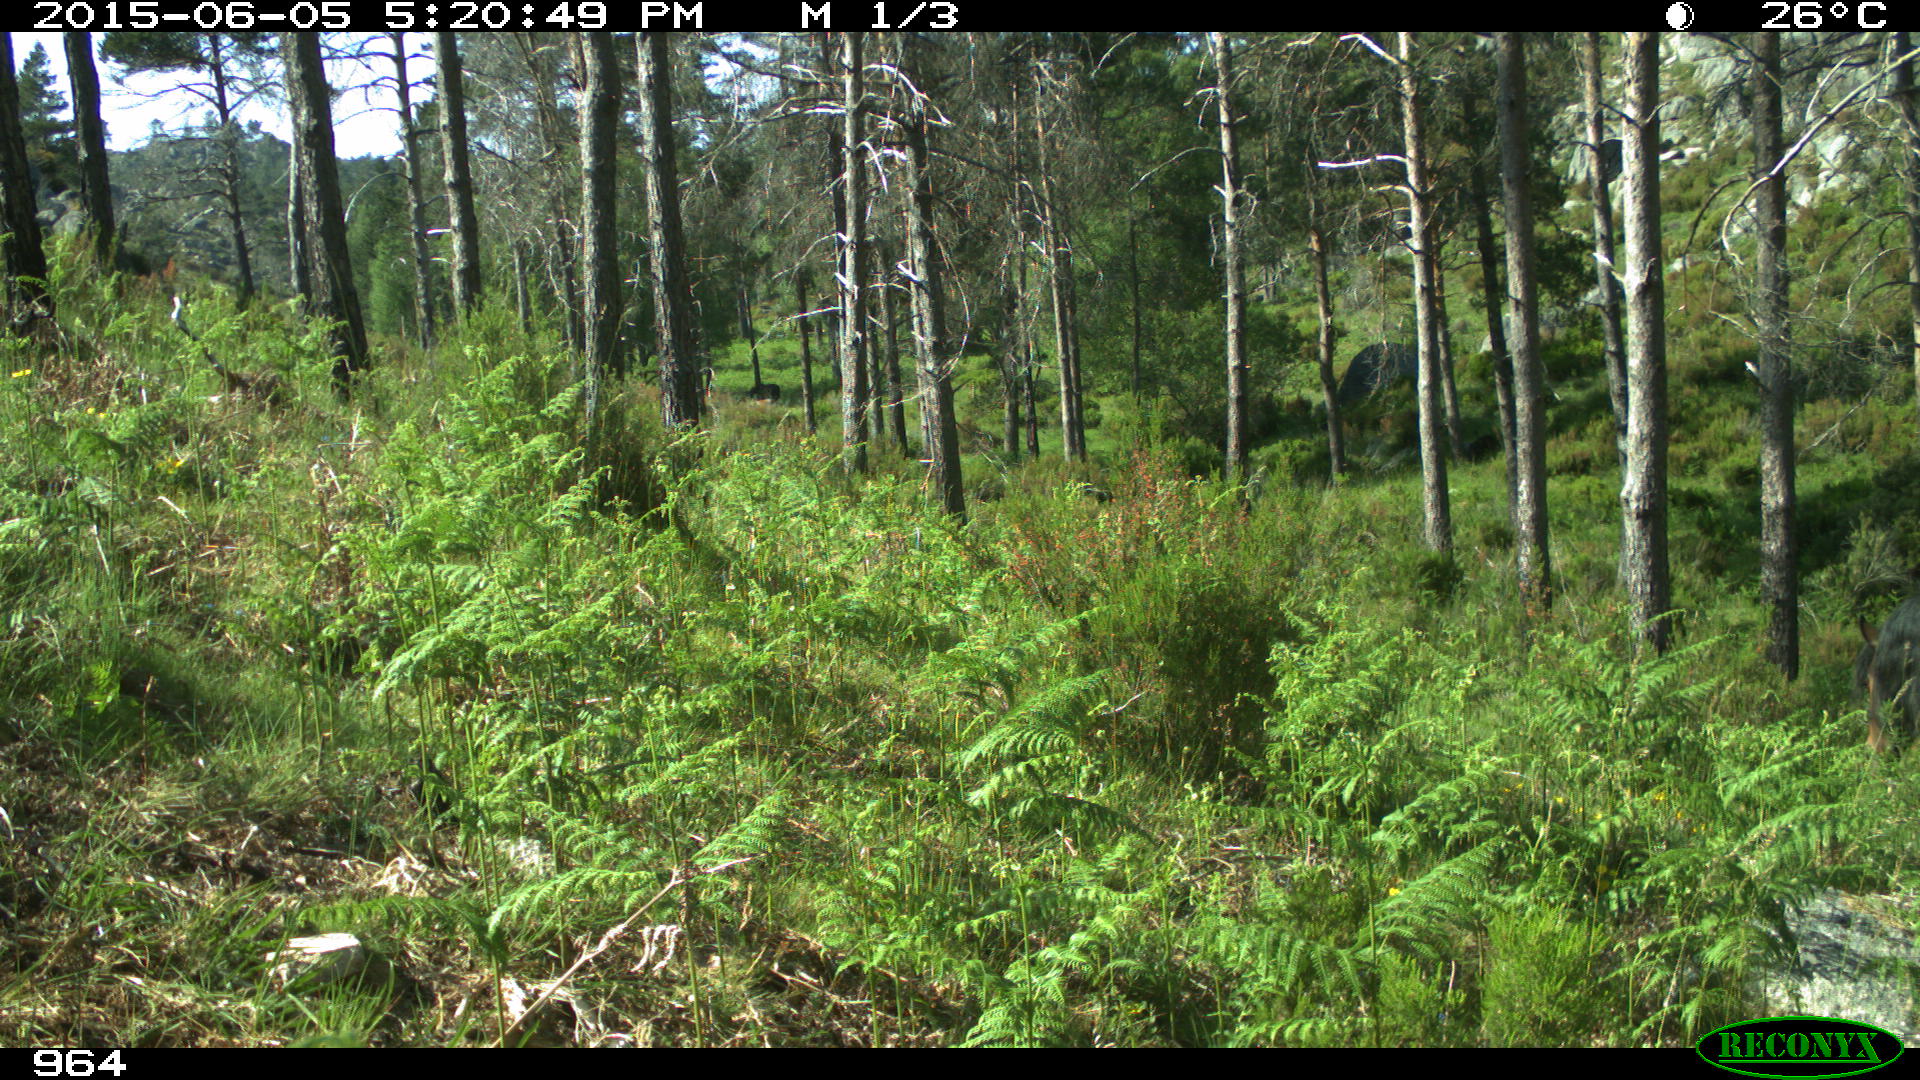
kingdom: Animalia
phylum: Chordata
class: Mammalia
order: Perissodactyla
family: Equidae
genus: Equus
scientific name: Equus caballus
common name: Horse
